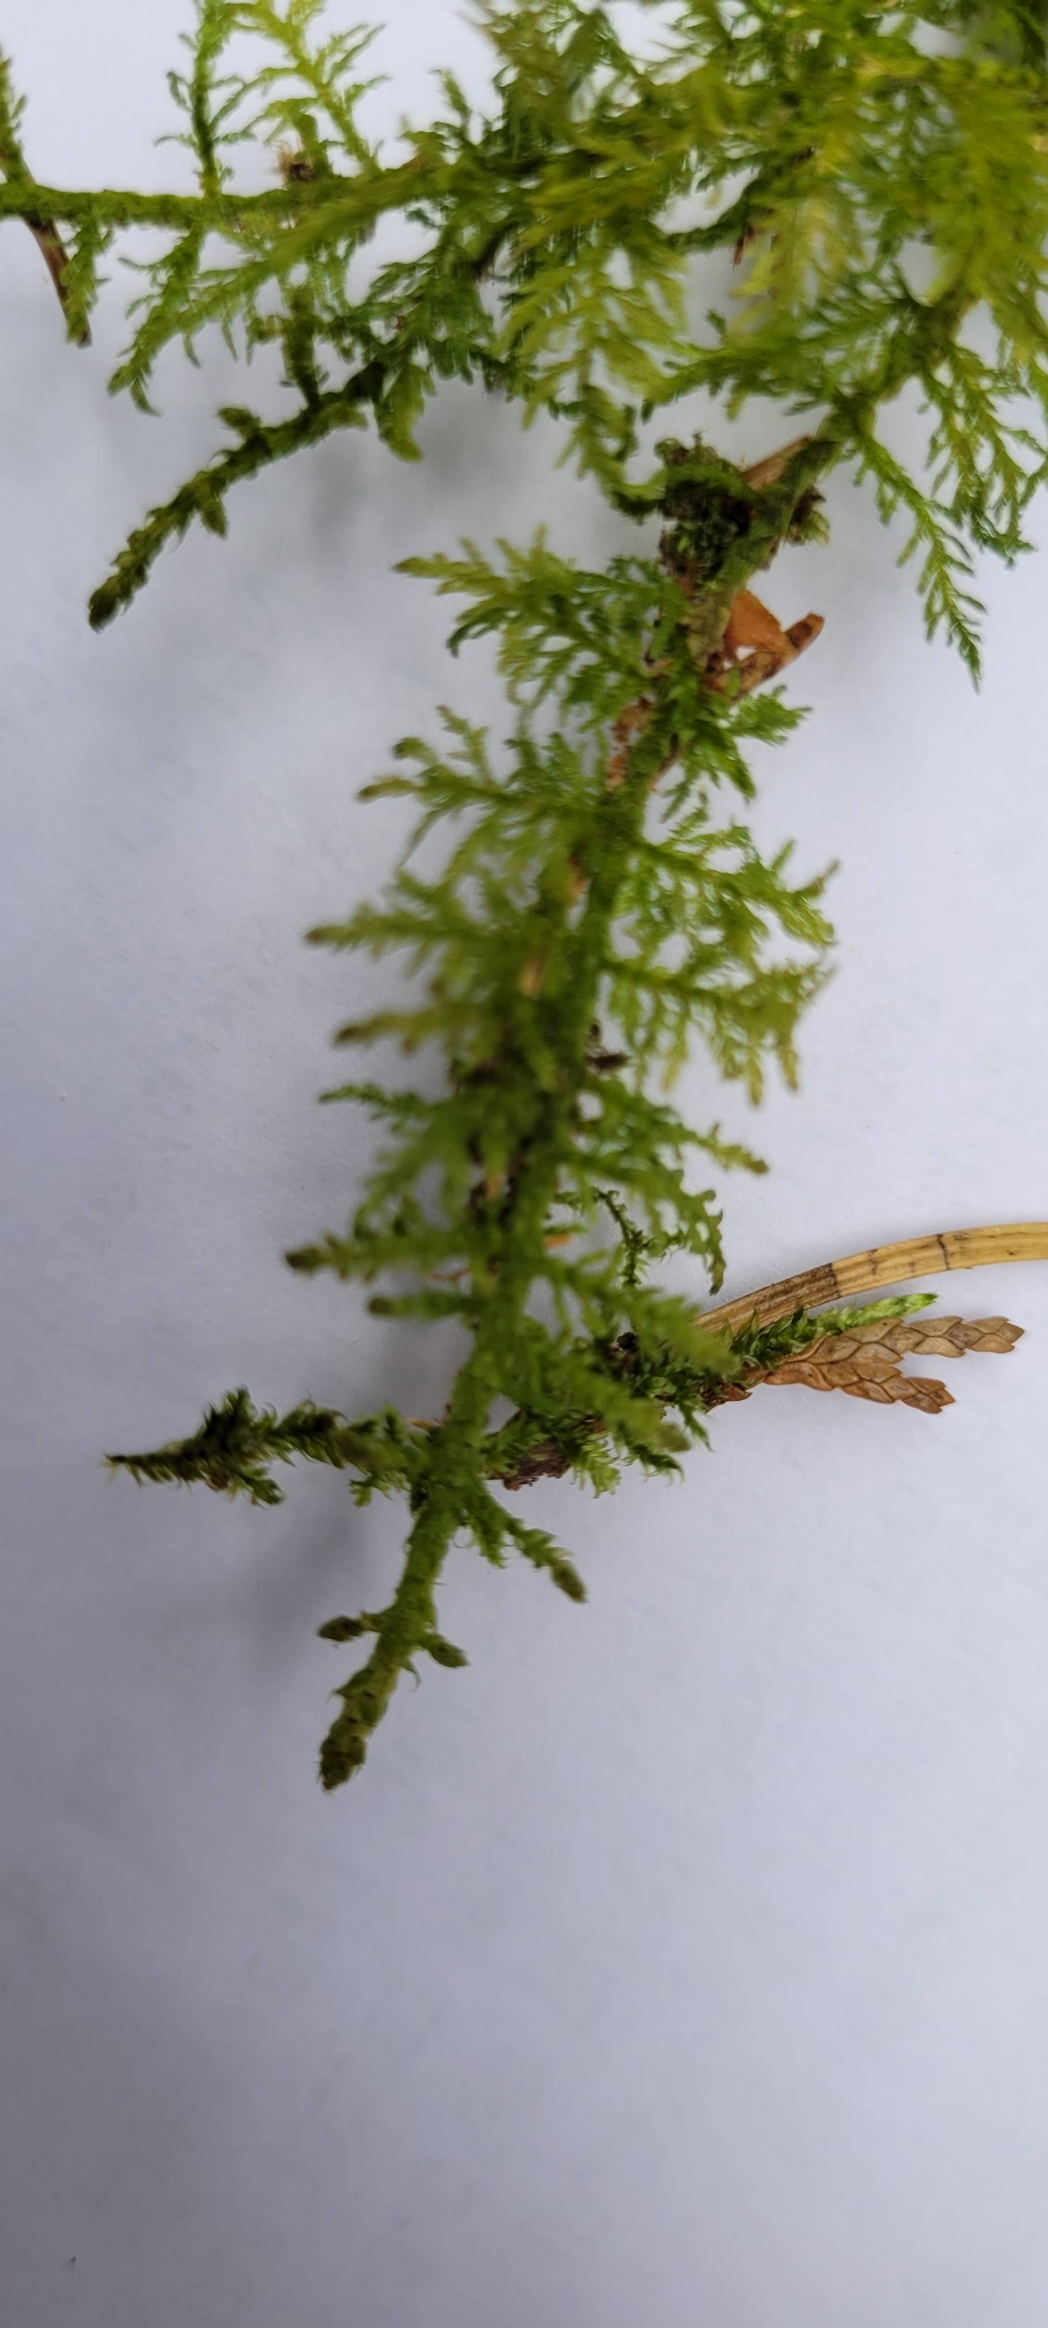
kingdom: Plantae
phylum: Bryophyta
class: Bryopsida
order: Hypnales
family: Thuidiaceae
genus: Thuidium
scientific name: Thuidium tamariscinum
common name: Pryd-bregnemos
